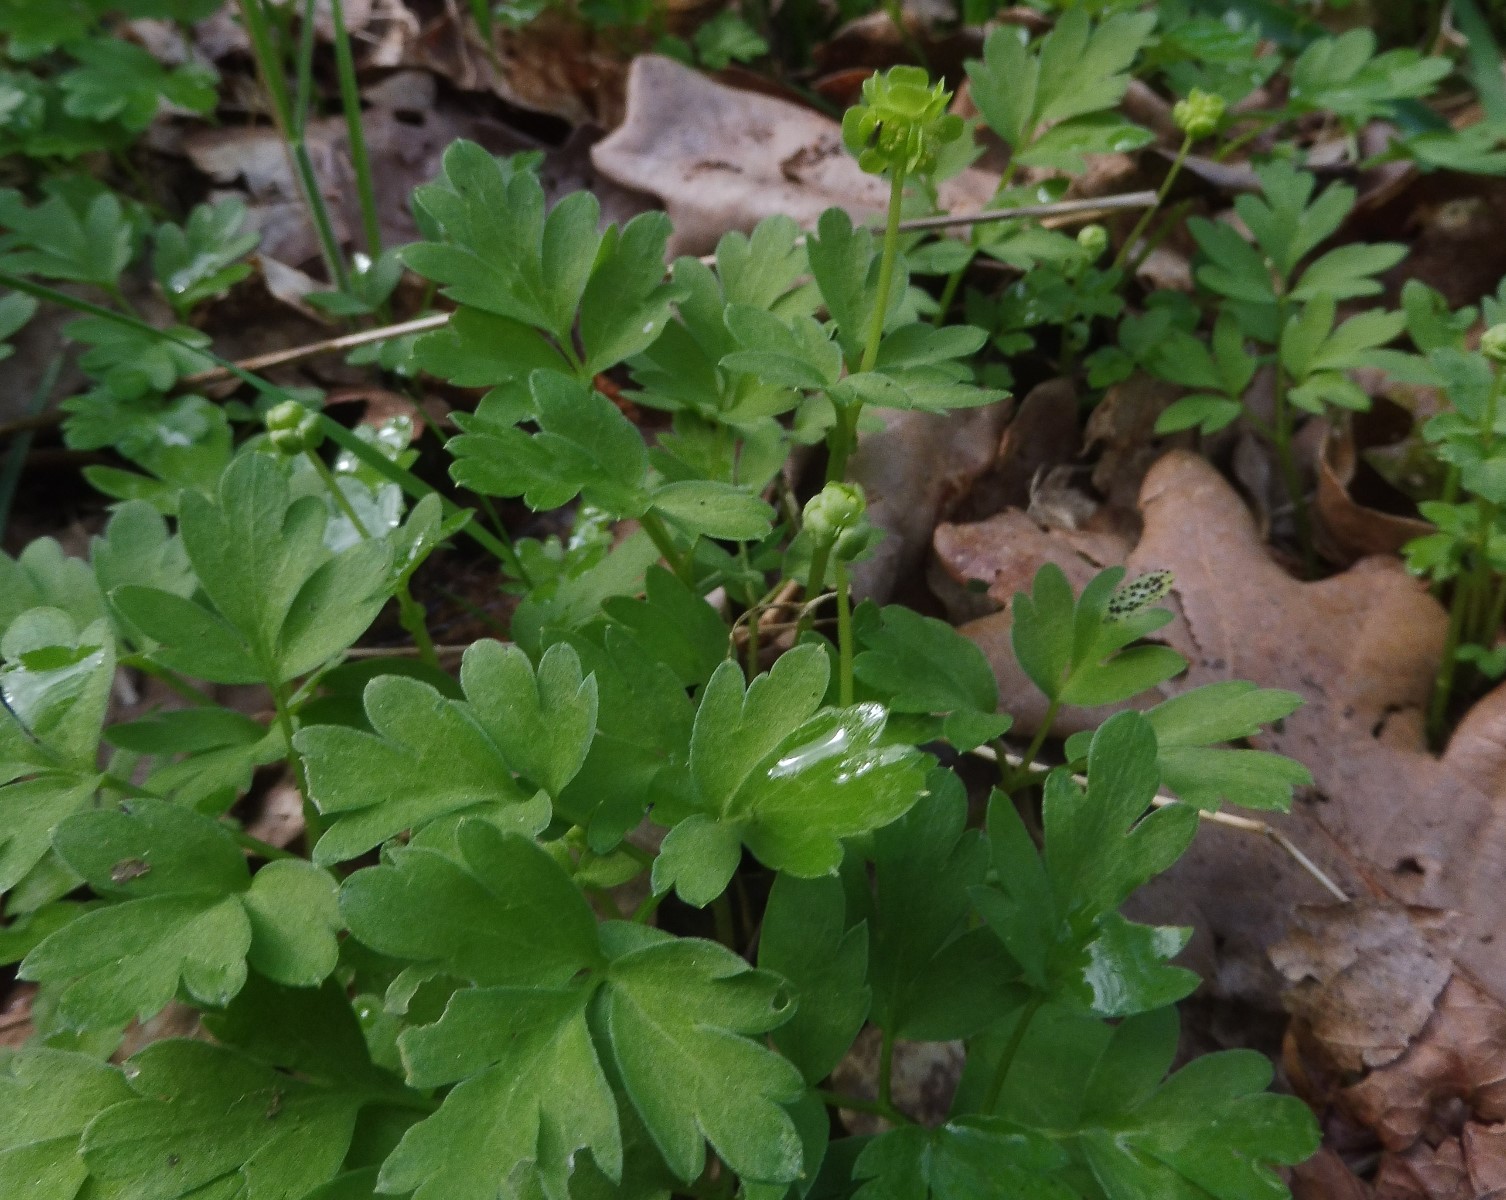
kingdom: Fungi
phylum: Basidiomycota
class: Pucciniomycetes
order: Pucciniales
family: Pucciniaceae
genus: Puccinia
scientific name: Puccinia adoxae
